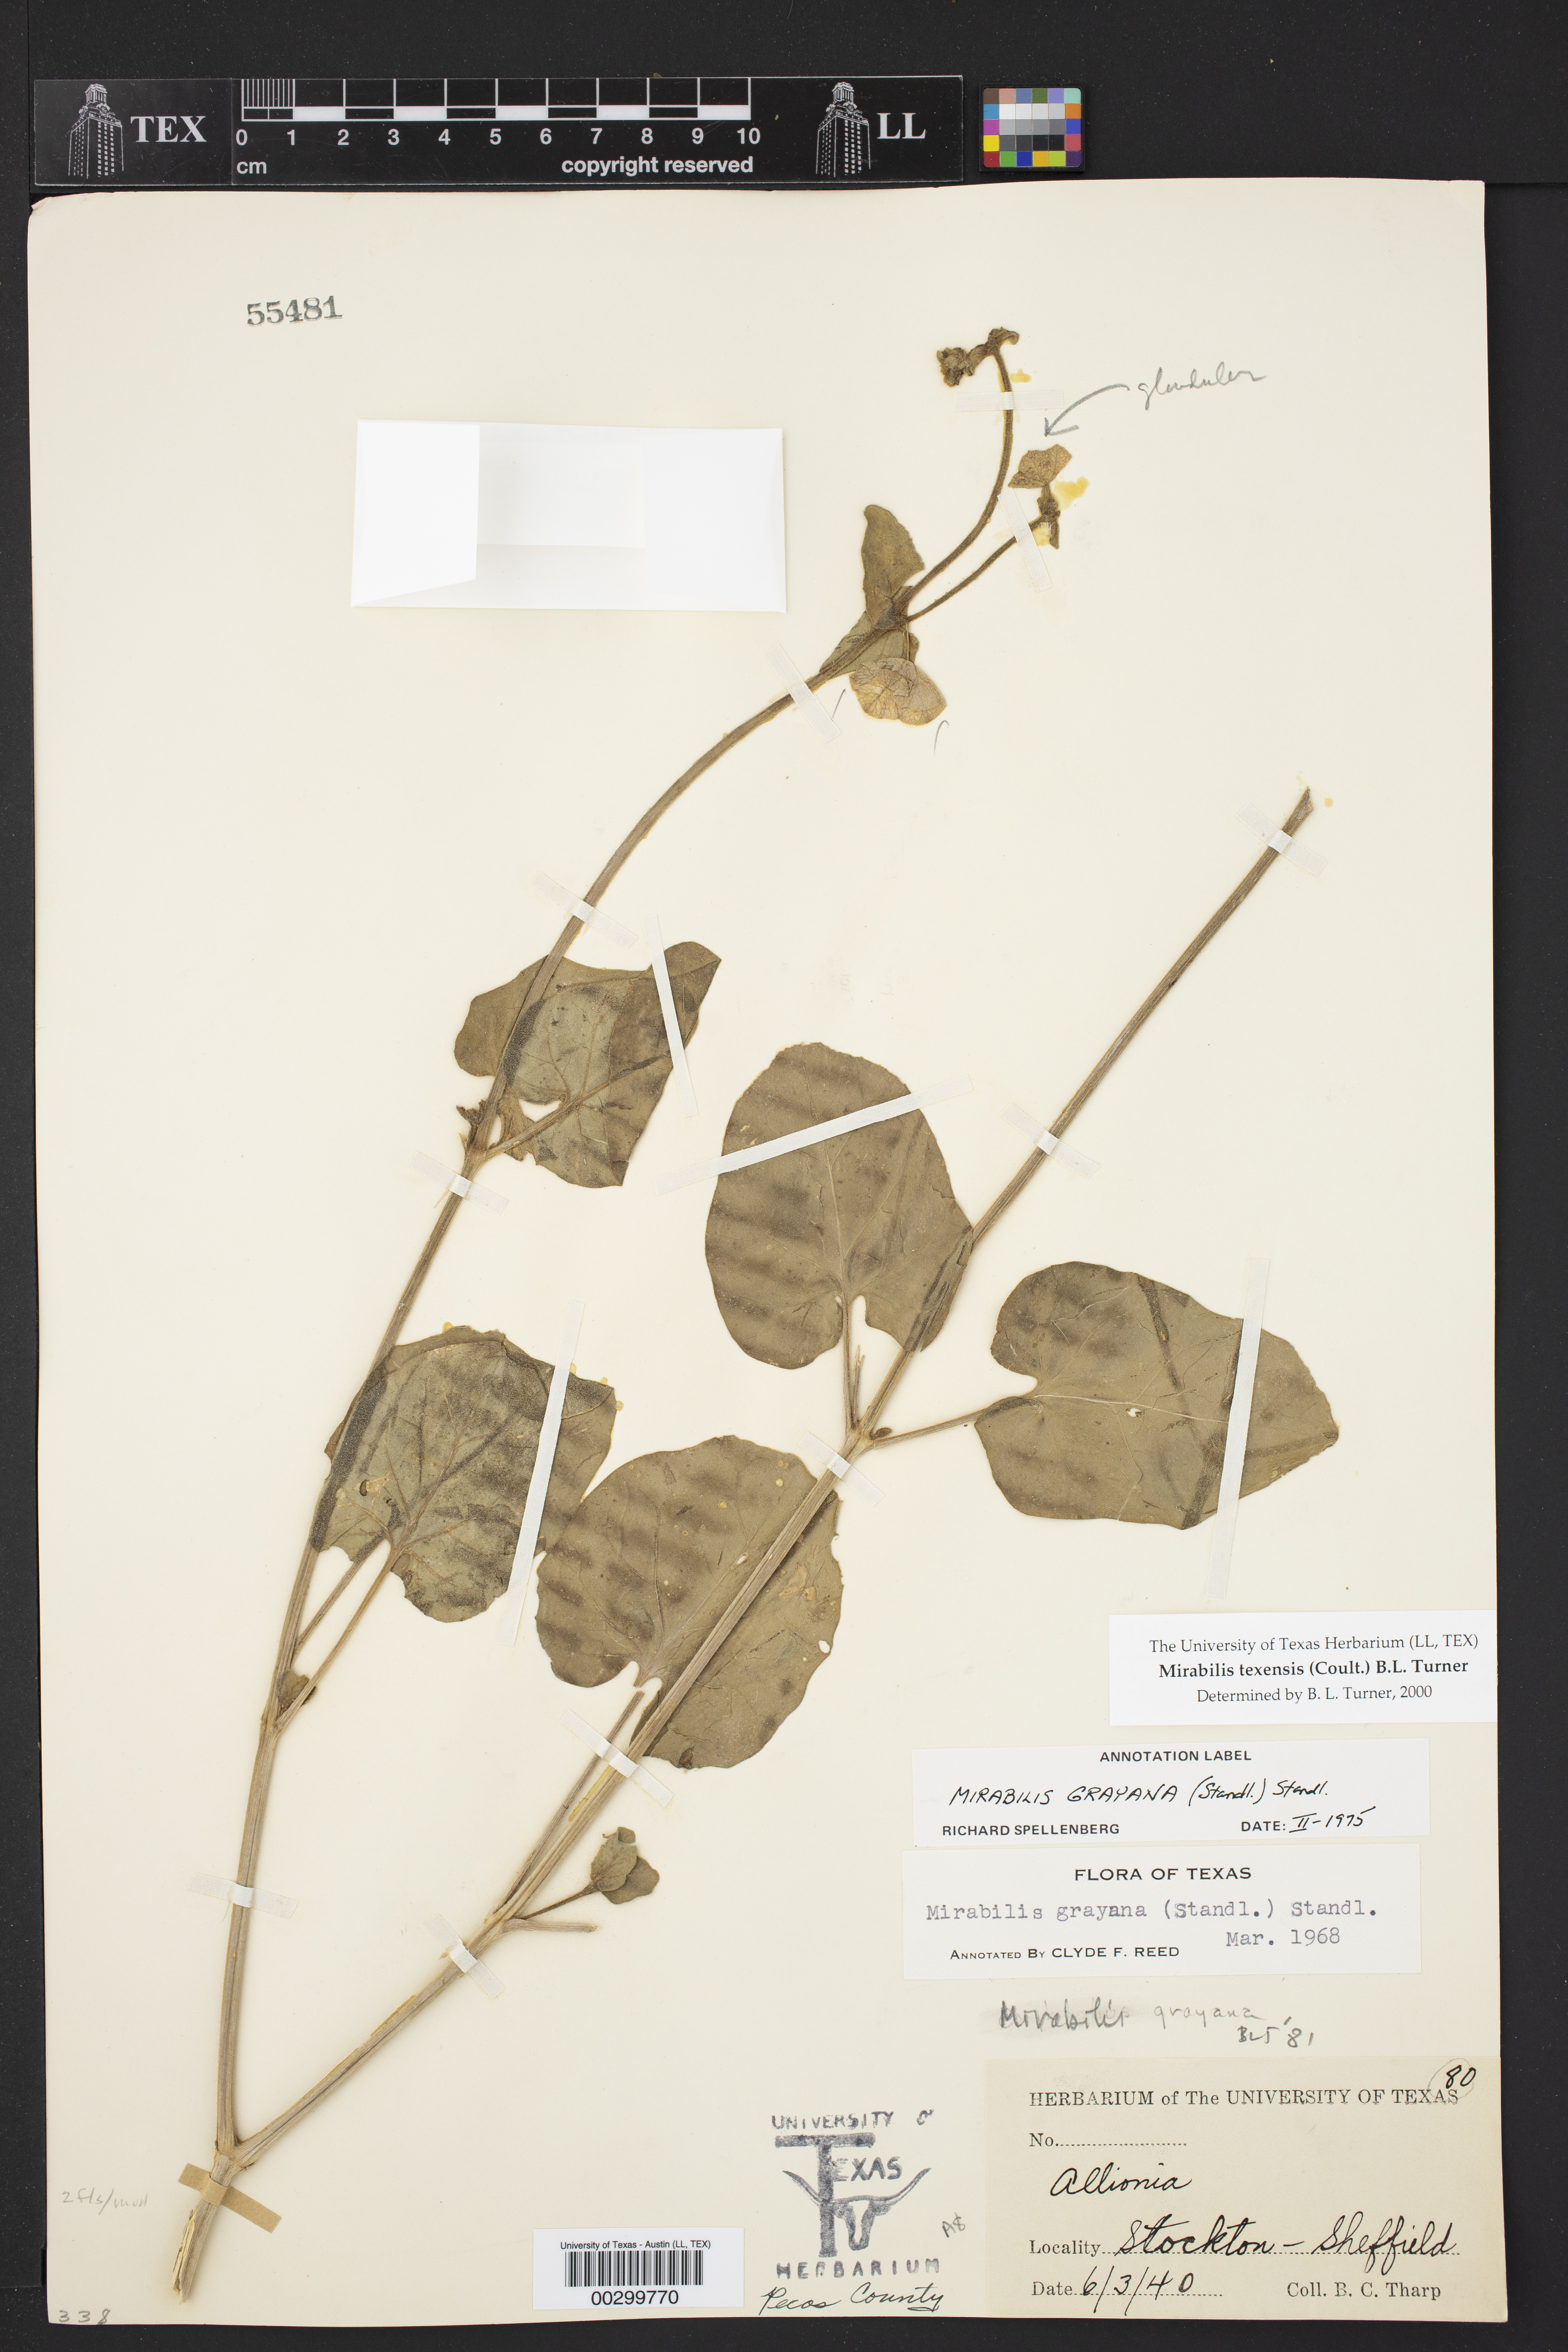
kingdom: Plantae
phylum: Tracheophyta
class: Magnoliopsida
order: Caryophyllales
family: Nyctaginaceae
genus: Mirabilis
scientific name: Mirabilis texensis
